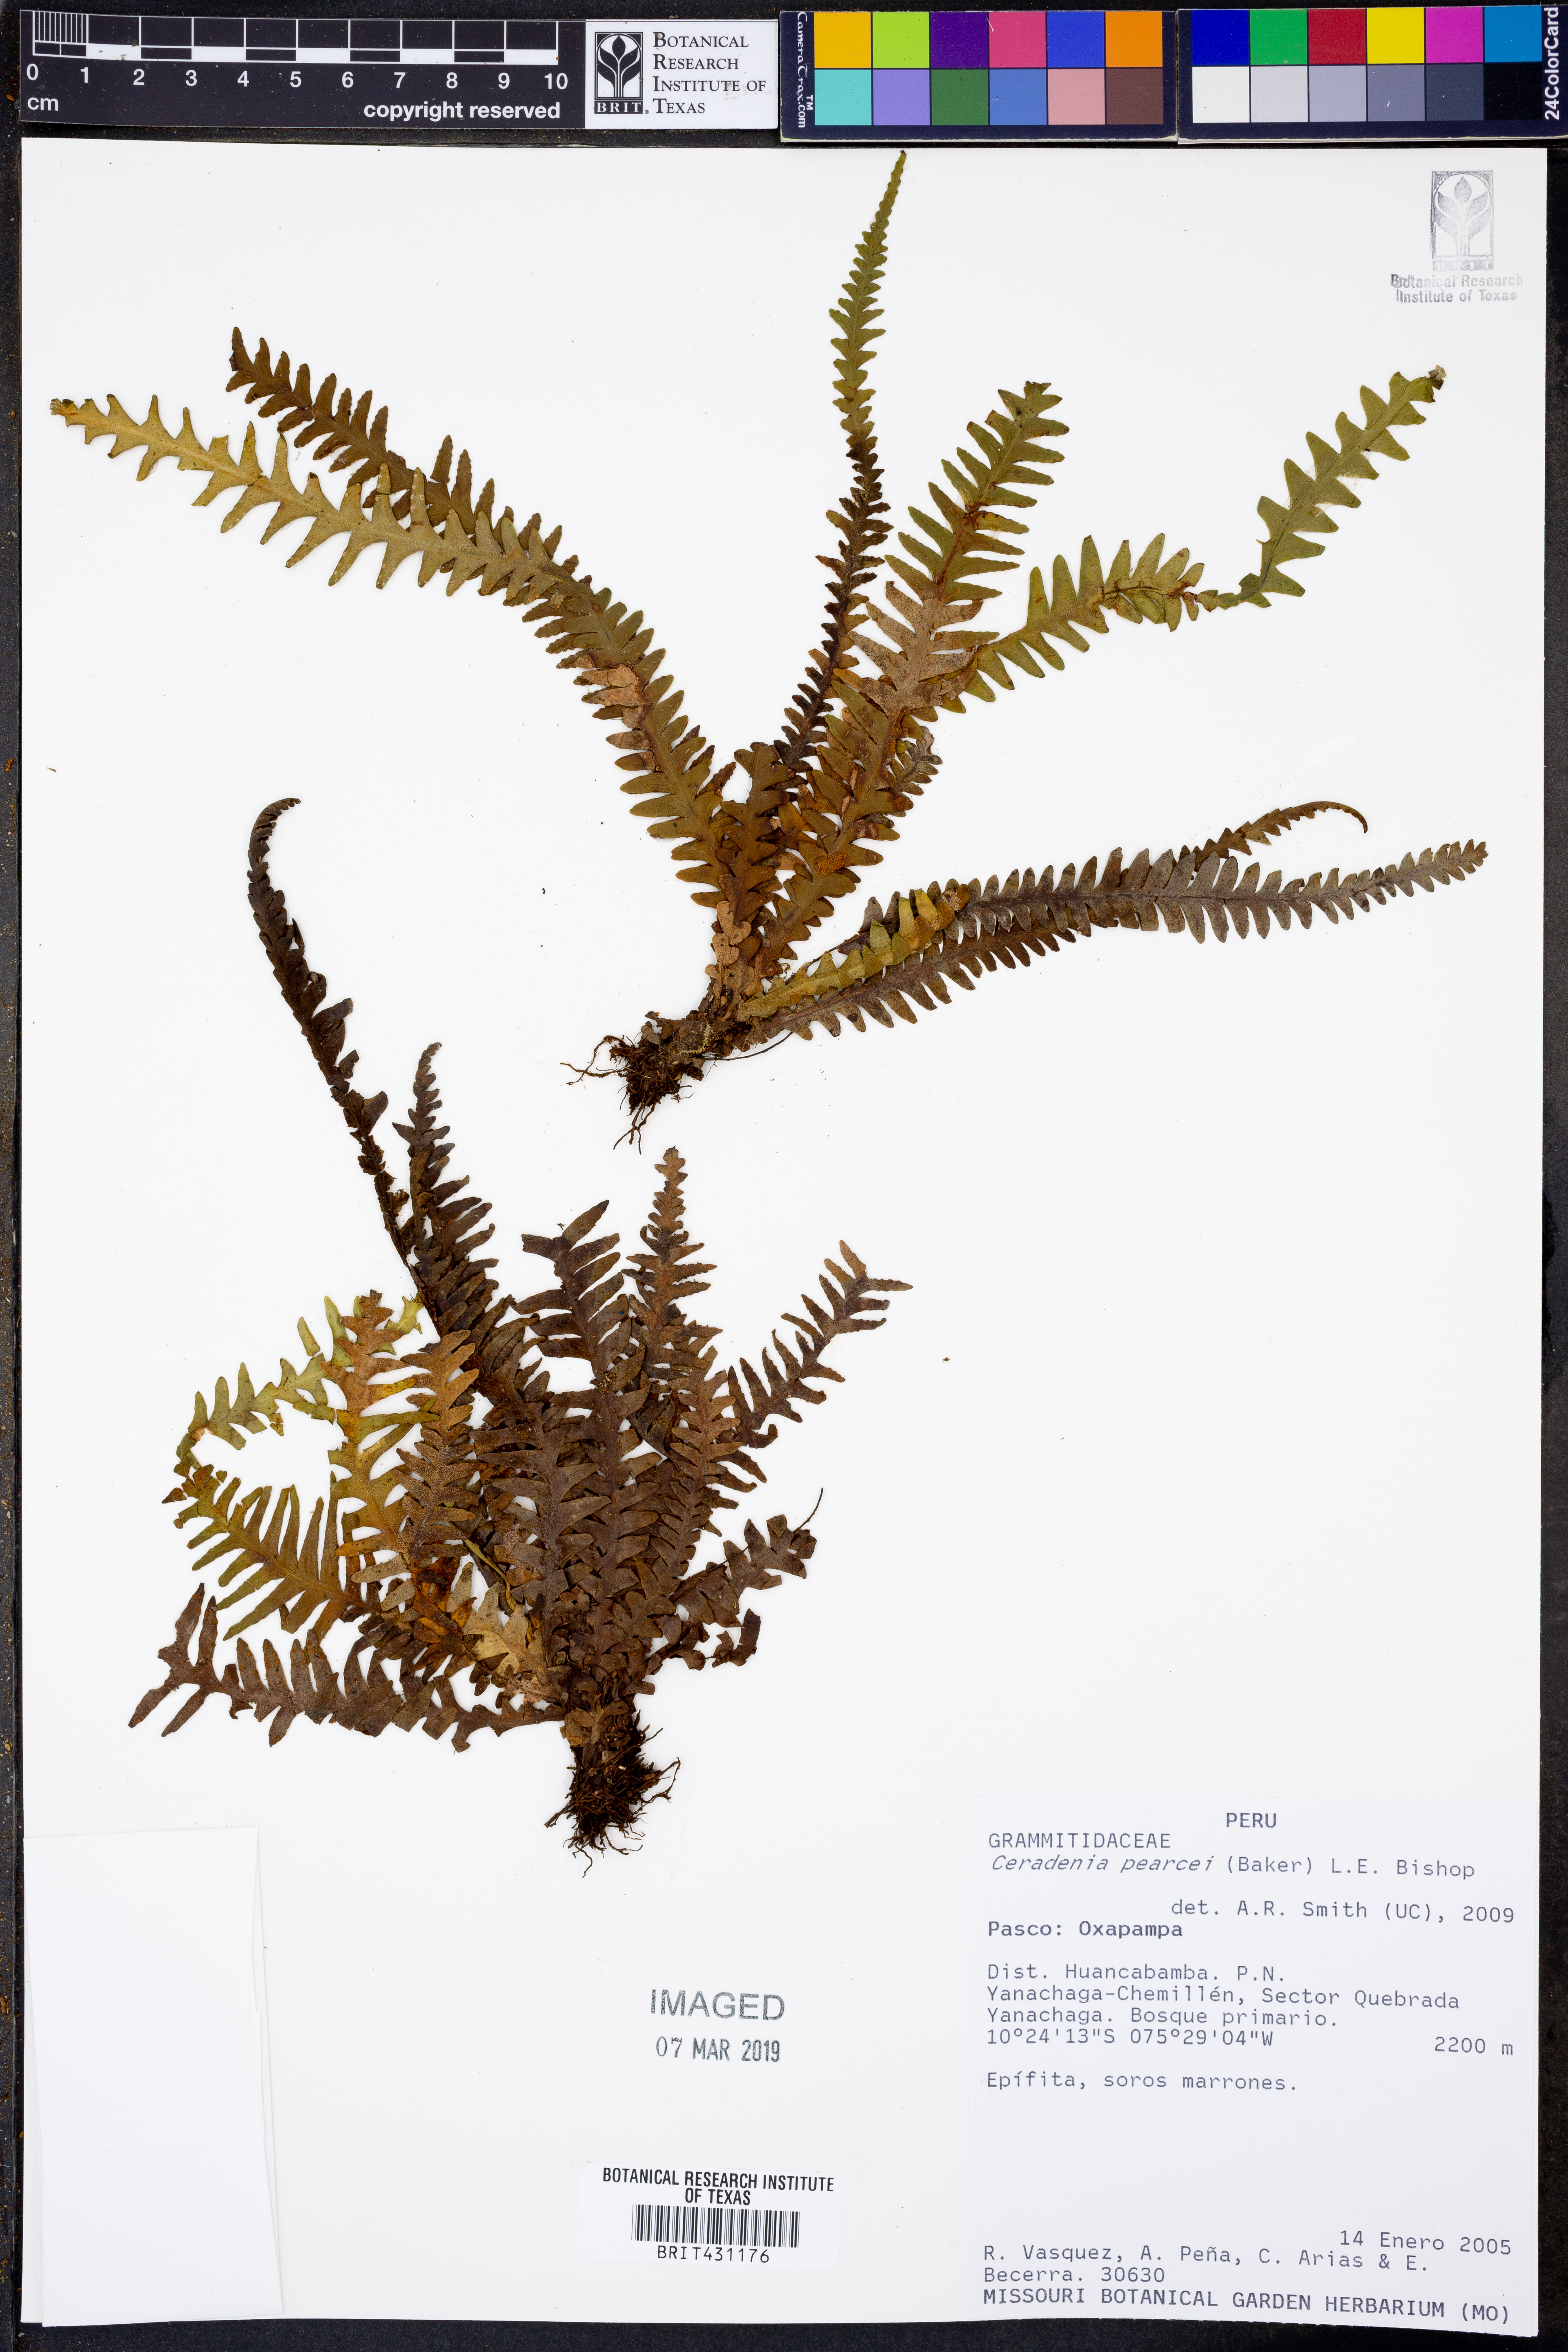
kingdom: Plantae
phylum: Tracheophyta
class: Polypodiopsida
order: Polypodiales
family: Polypodiaceae
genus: Ceradenia
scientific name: Ceradenia pearcei
